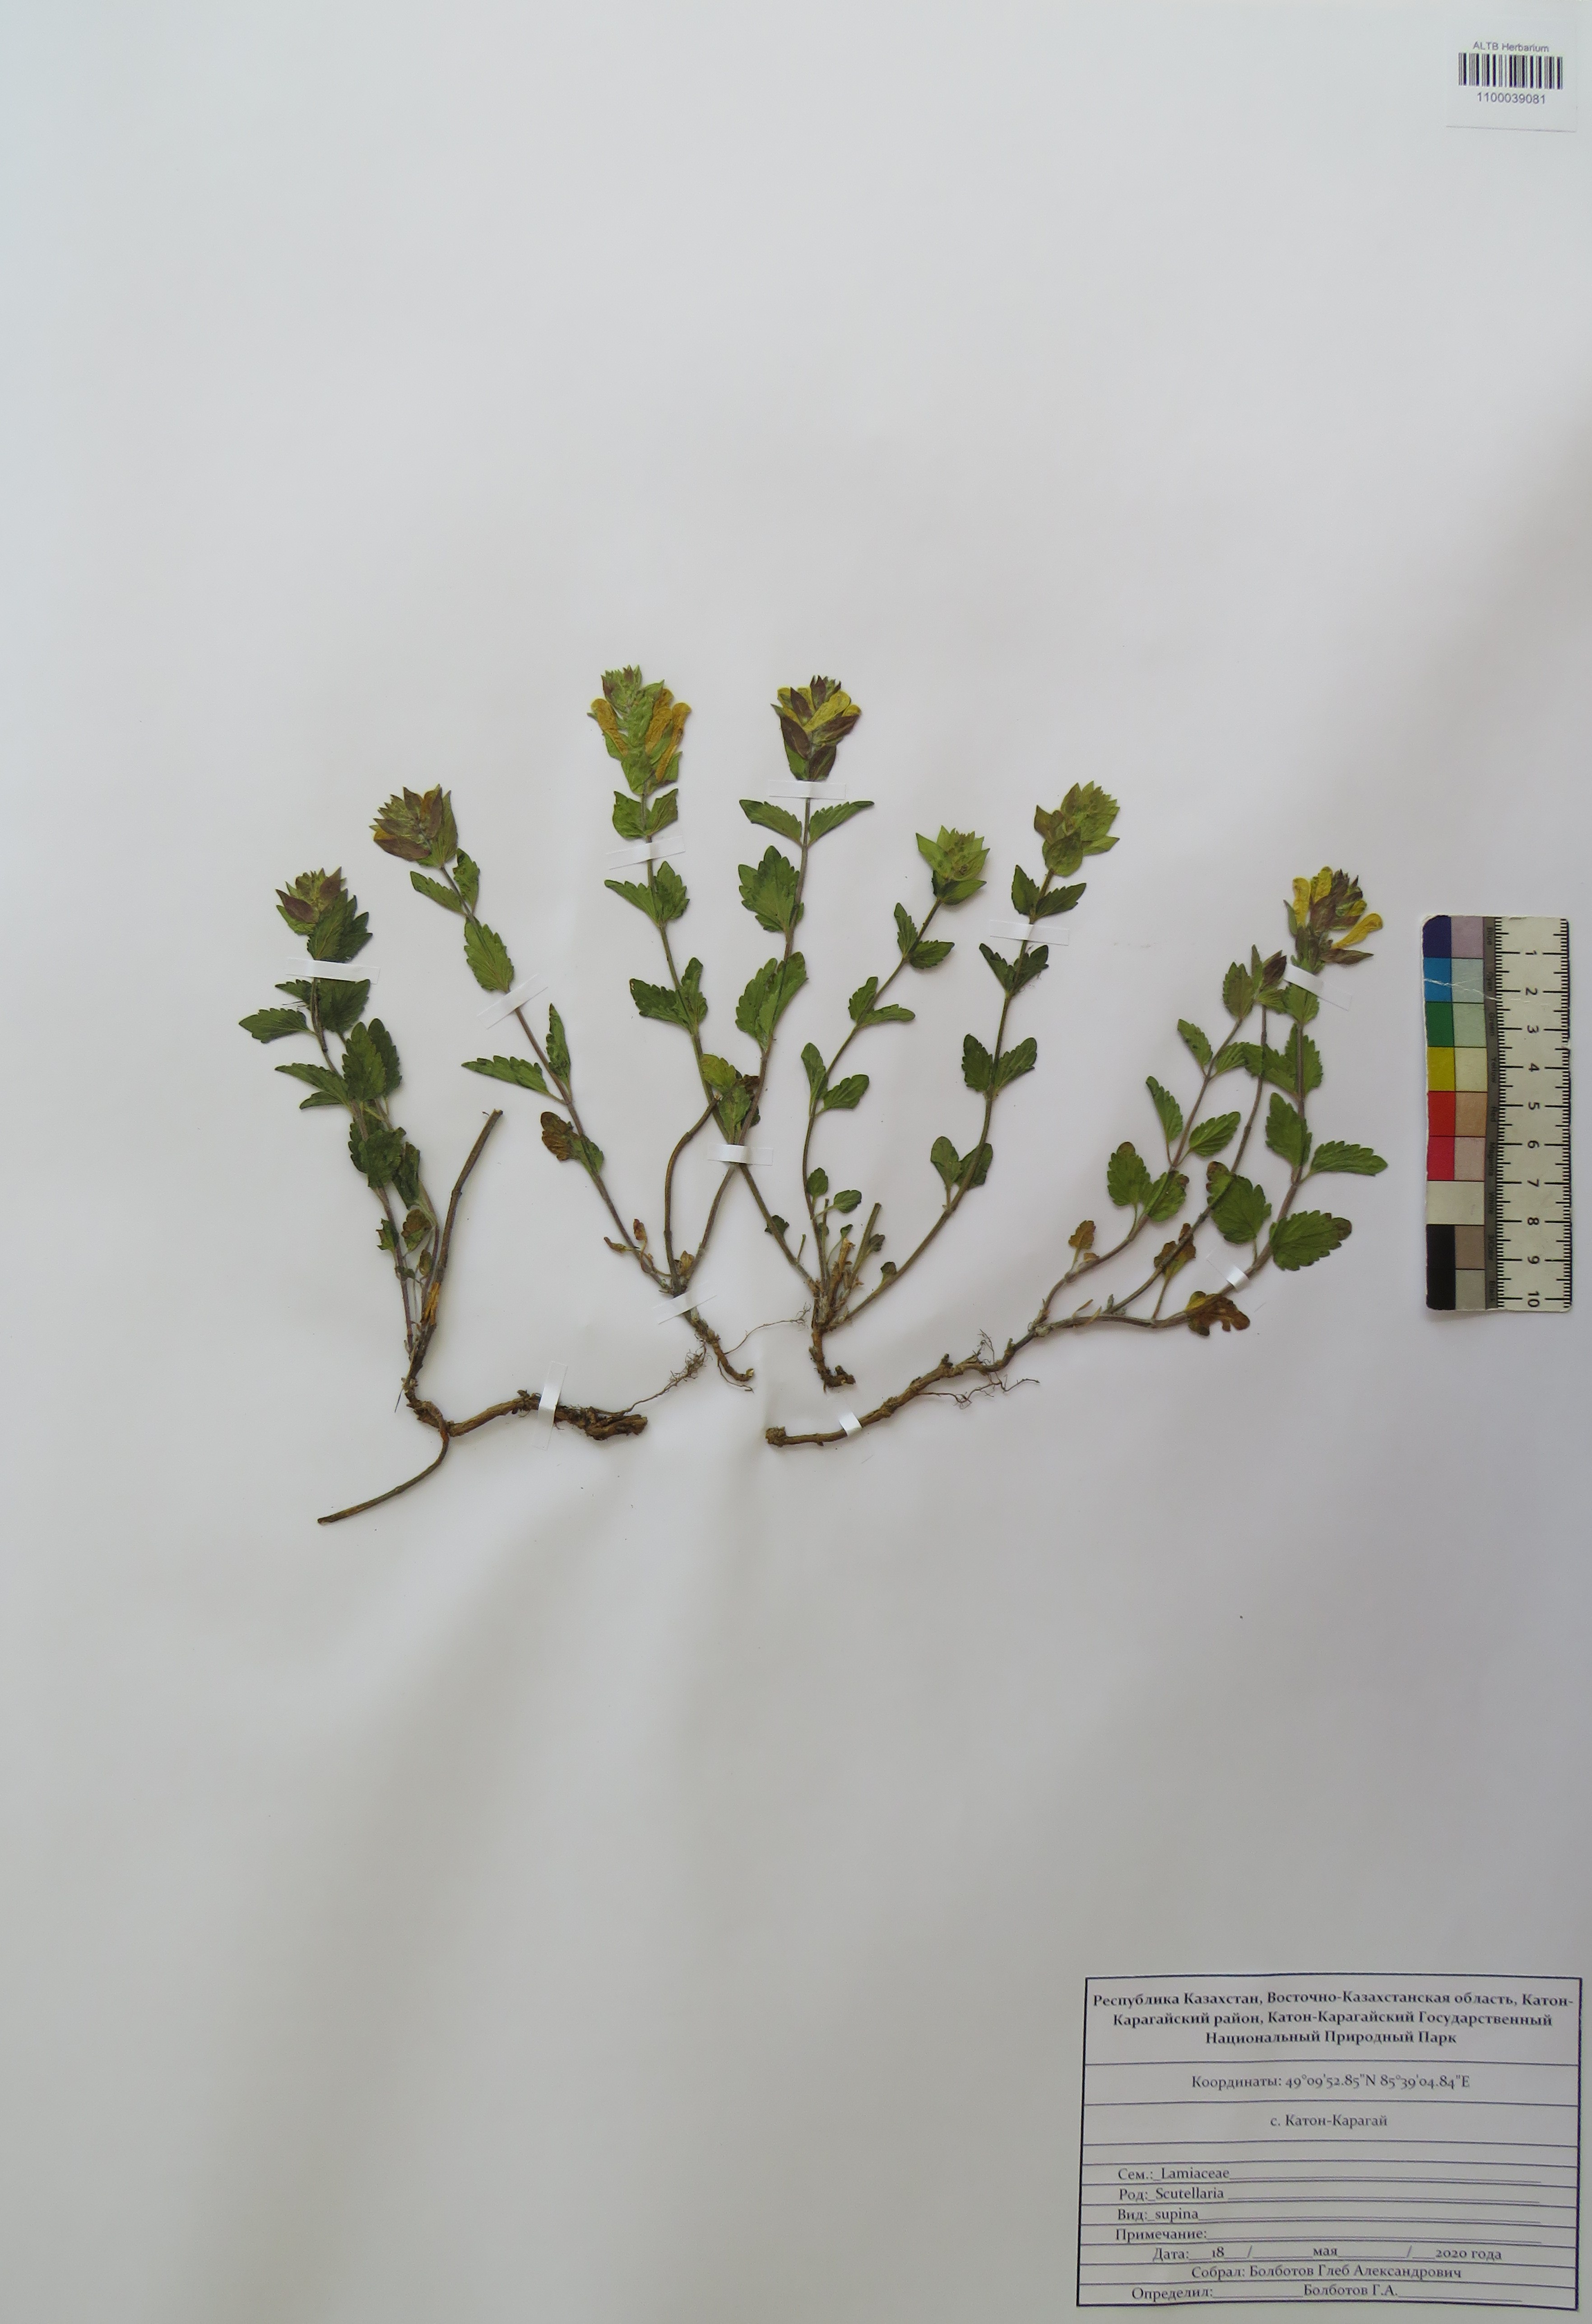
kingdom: Plantae
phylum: Tracheophyta
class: Magnoliopsida
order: Lamiales
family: Lamiaceae
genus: Scutellaria
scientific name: Scutellaria supina
